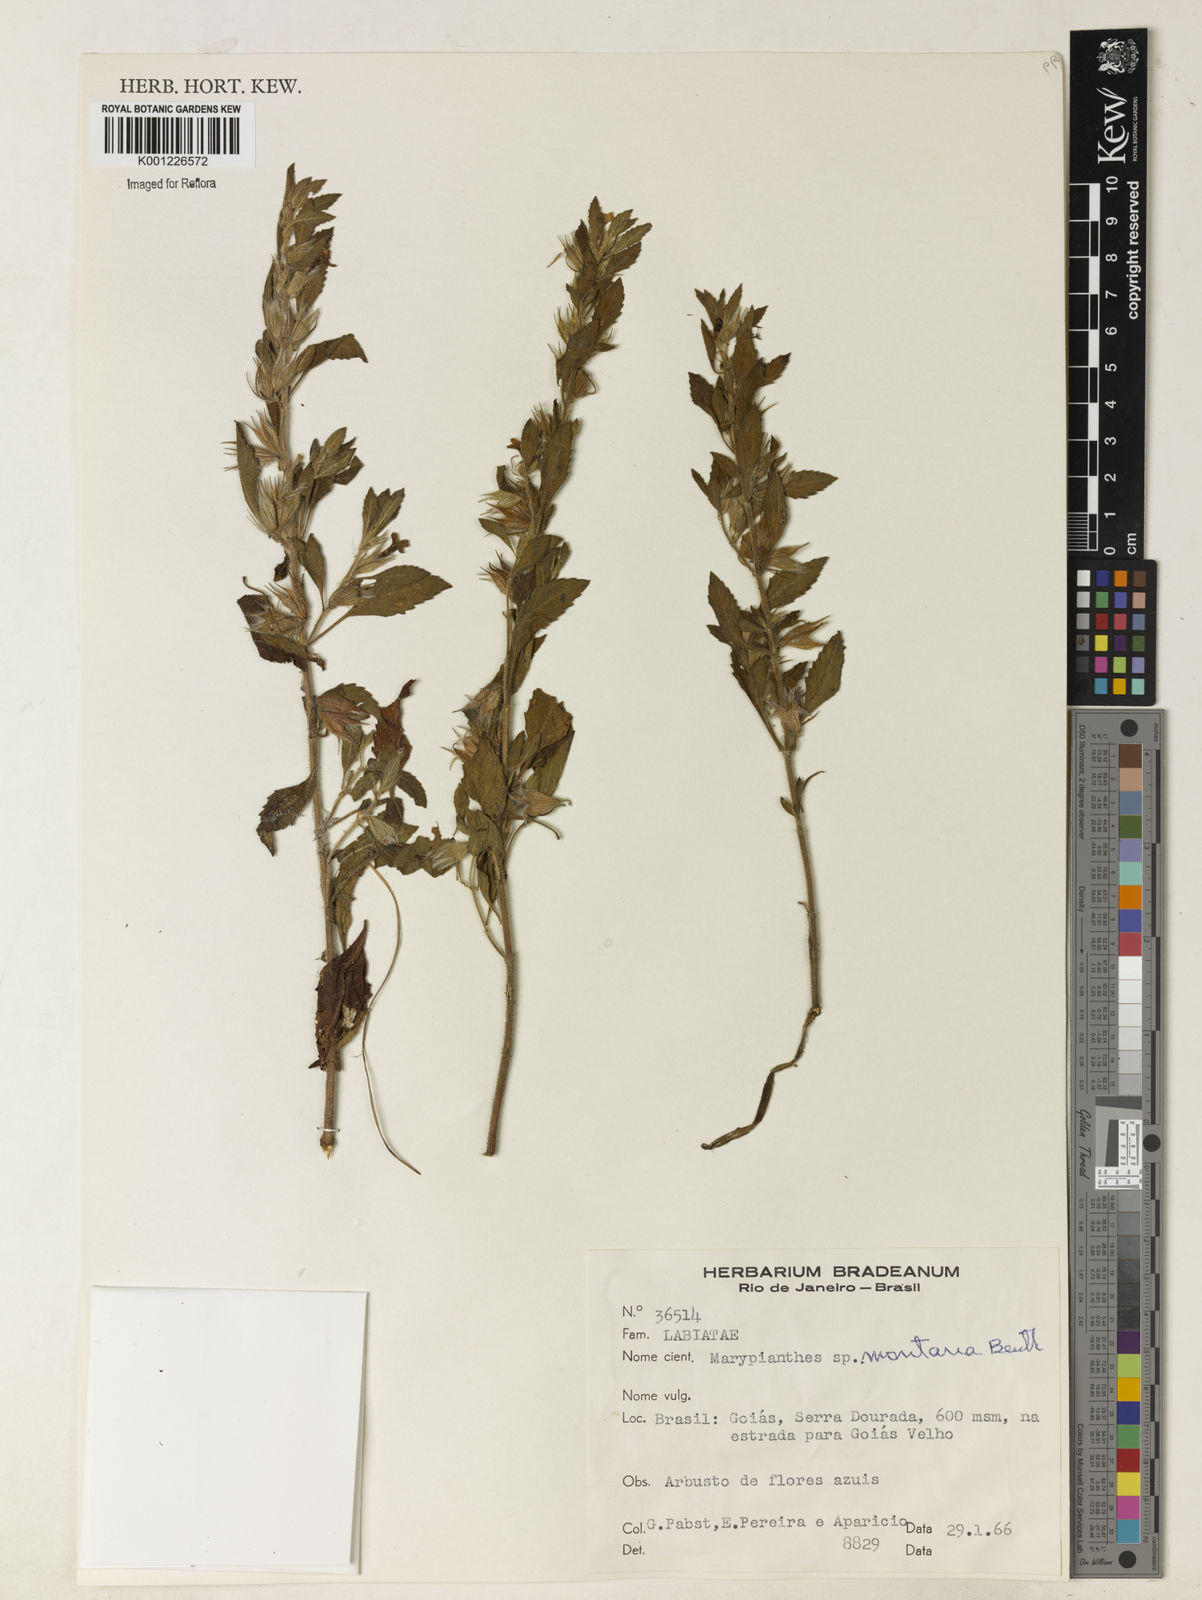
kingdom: Plantae
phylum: Tracheophyta
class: Magnoliopsida
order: Lamiales
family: Lamiaceae
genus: Marsypianthes
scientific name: Marsypianthes burchellii
